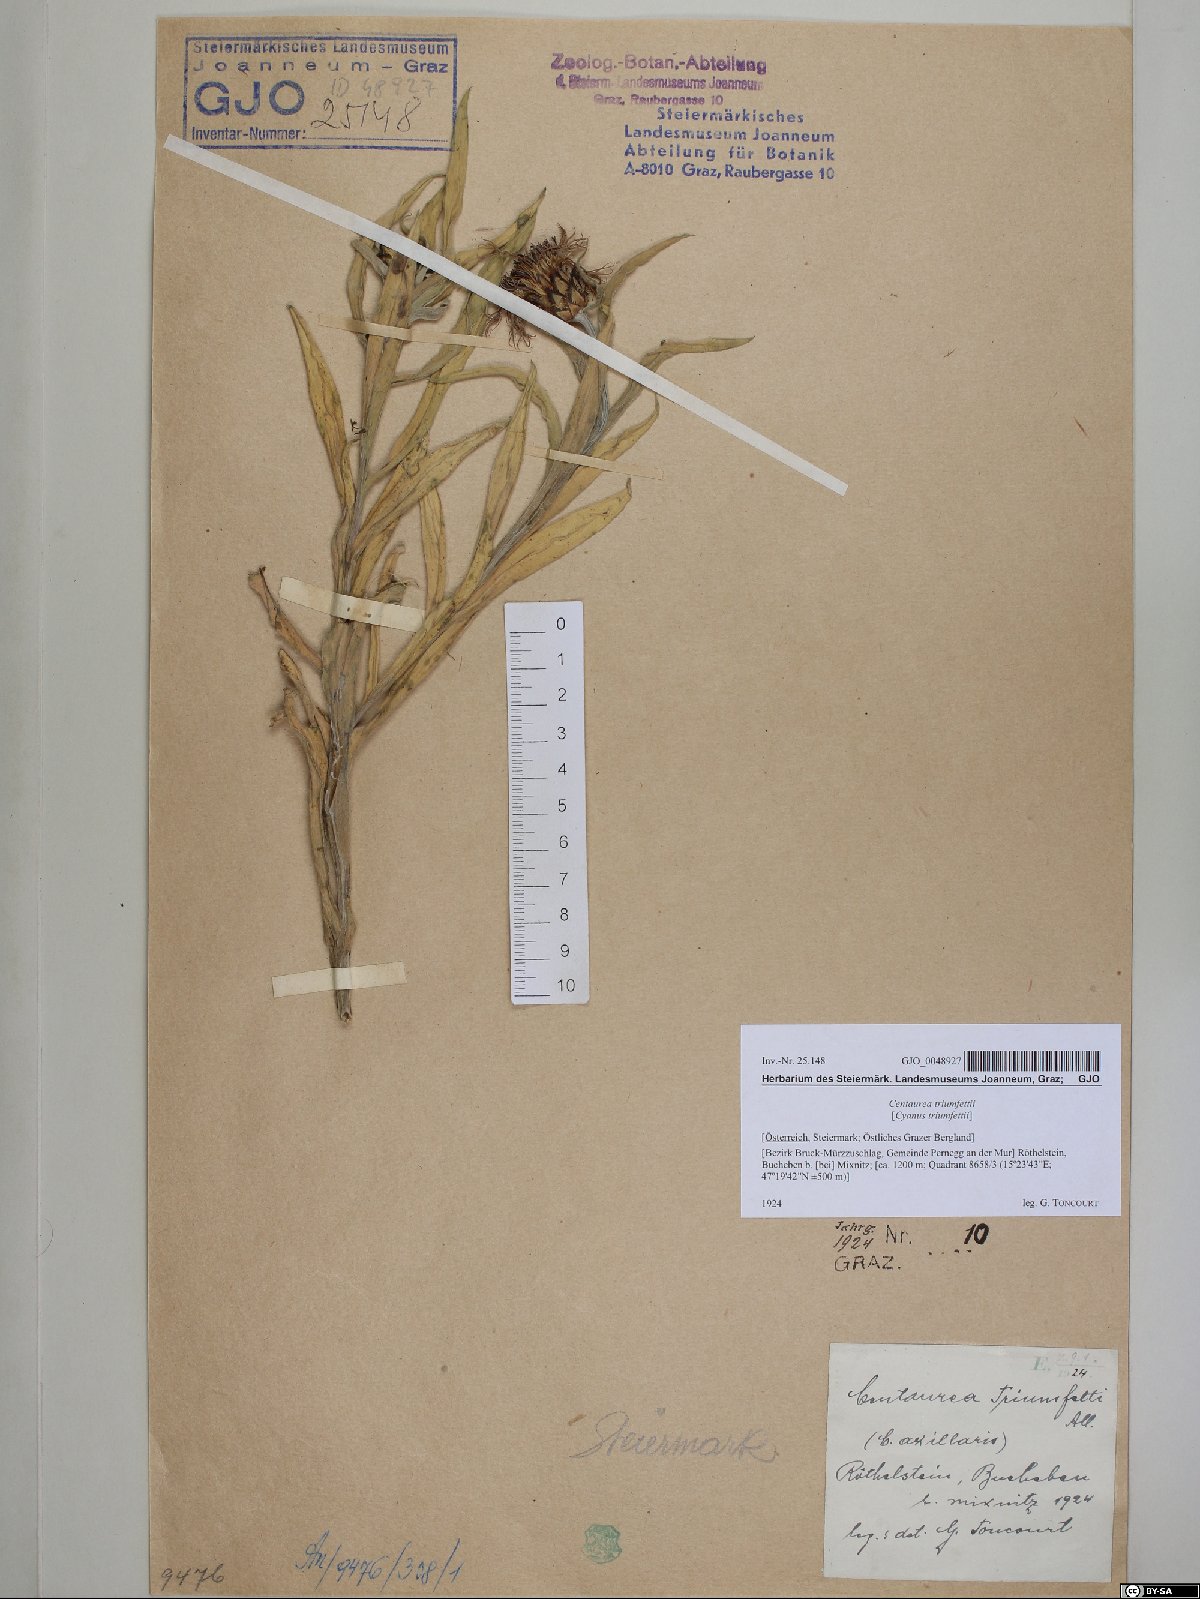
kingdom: Plantae
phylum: Tracheophyta
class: Magnoliopsida
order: Asterales
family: Asteraceae
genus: Centaurea
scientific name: Centaurea triumfettii
